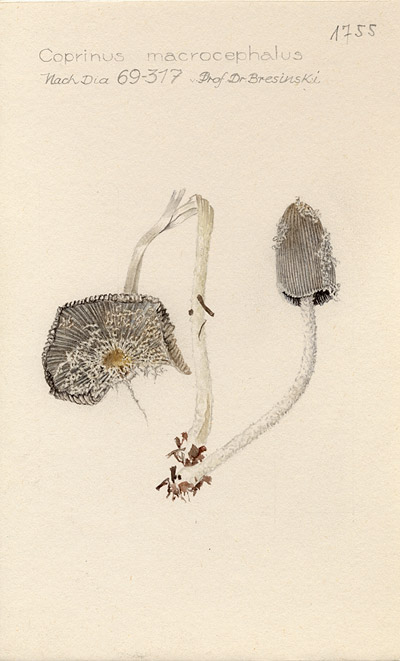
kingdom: Fungi
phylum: Basidiomycota
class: Agaricomycetes
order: Agaricales
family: Psathyrellaceae
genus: Coprinopsis
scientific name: Coprinopsis macrocephala
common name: Bighead inkcap
